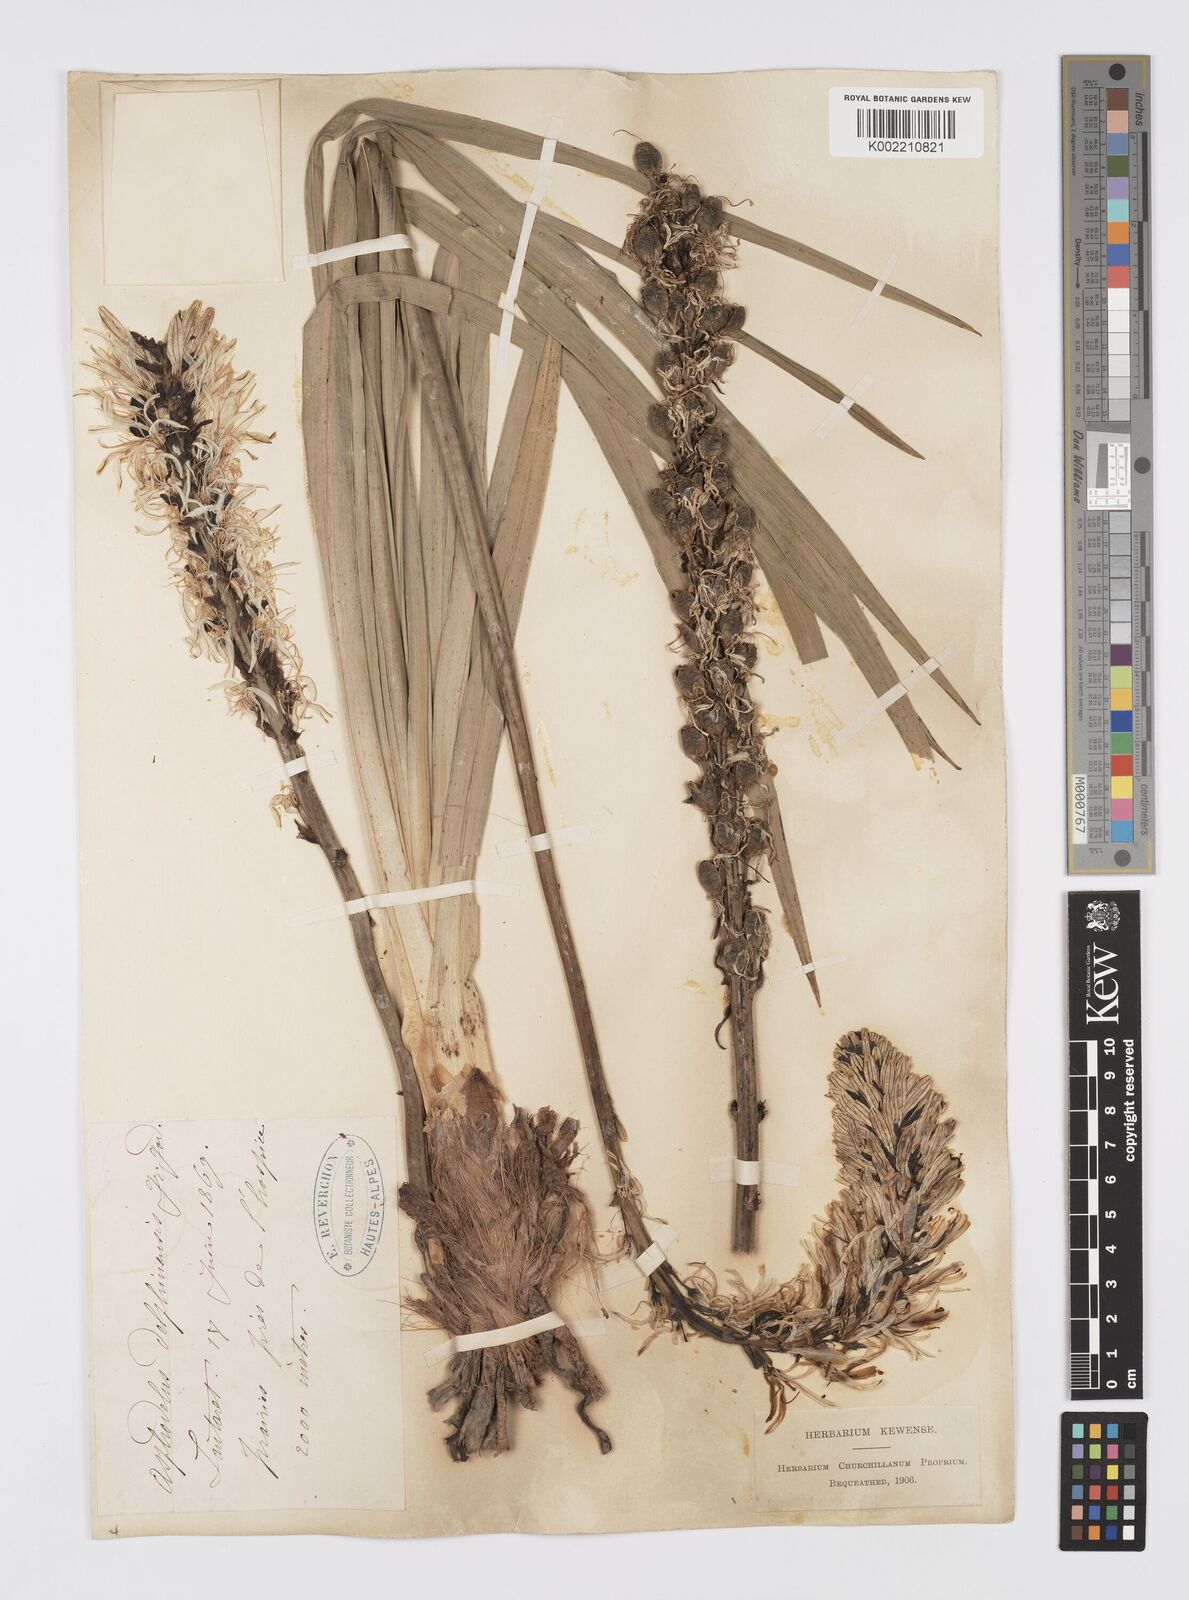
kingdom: Plantae
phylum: Tracheophyta
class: Liliopsida
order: Asparagales
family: Asphodelaceae
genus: Asphodelus
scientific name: Asphodelus albus
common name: White asphodel
